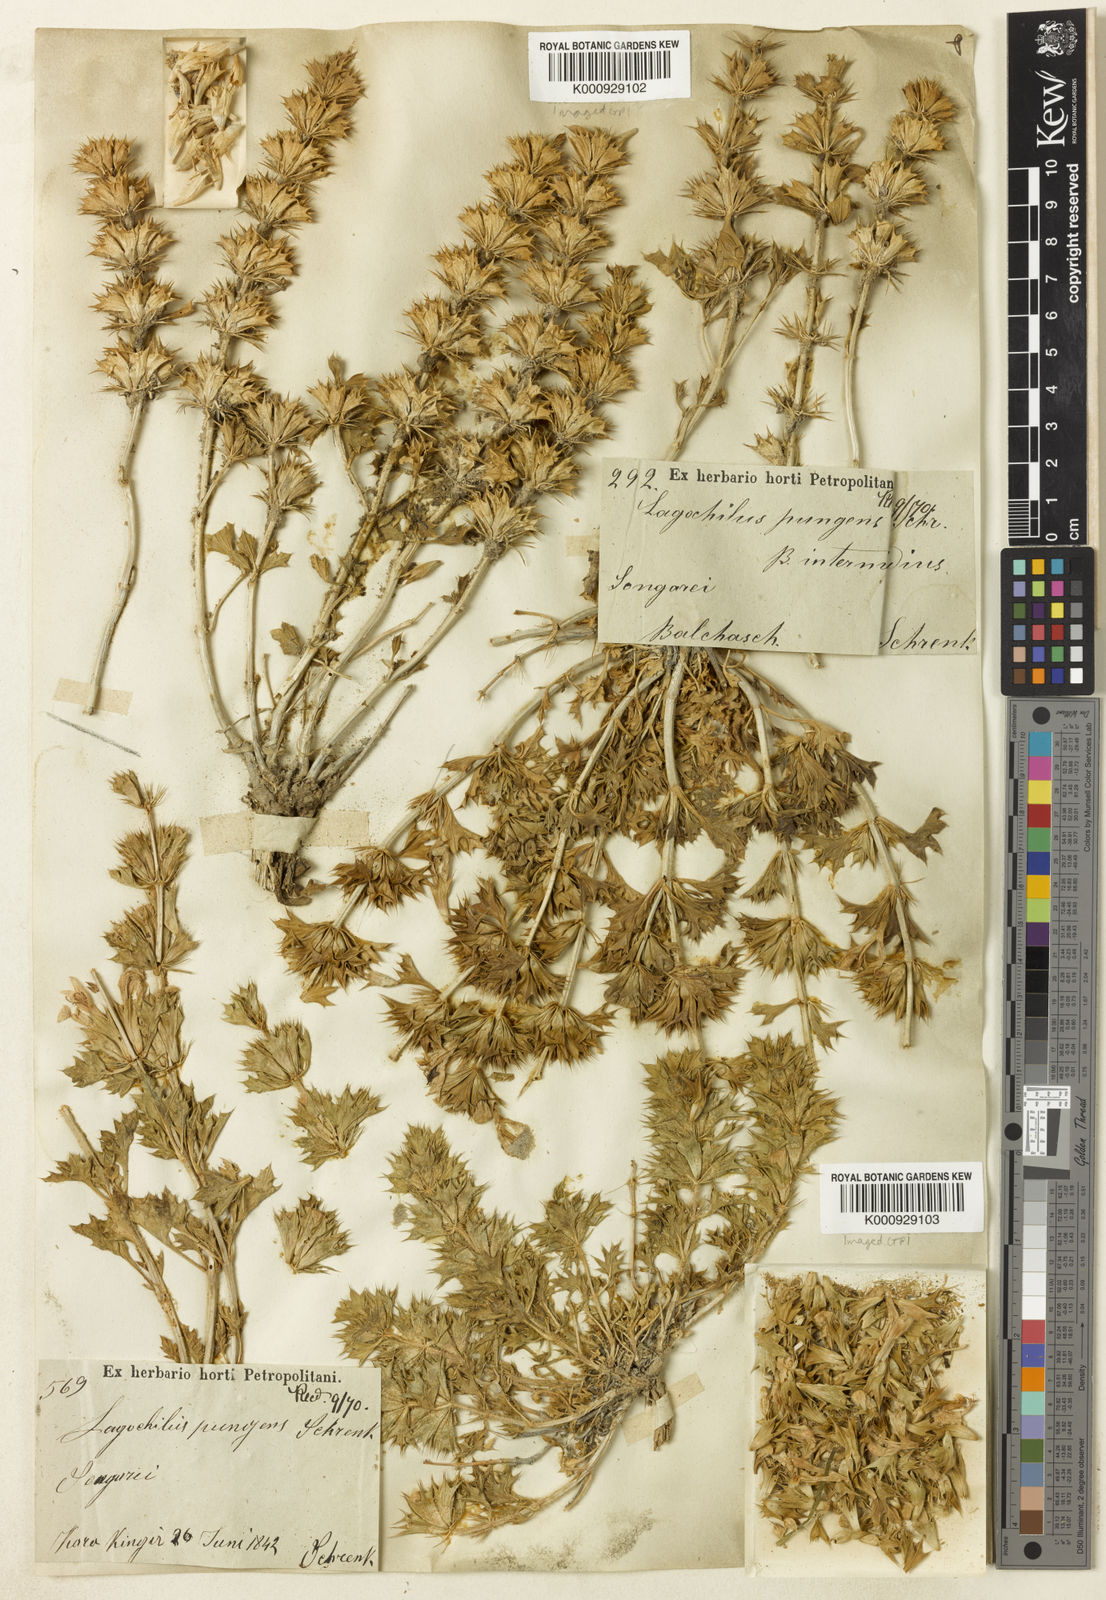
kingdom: Plantae
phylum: Tracheophyta
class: Magnoliopsida
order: Lamiales
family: Lamiaceae
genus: Lagochilus
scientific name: Lagochilus pungens
